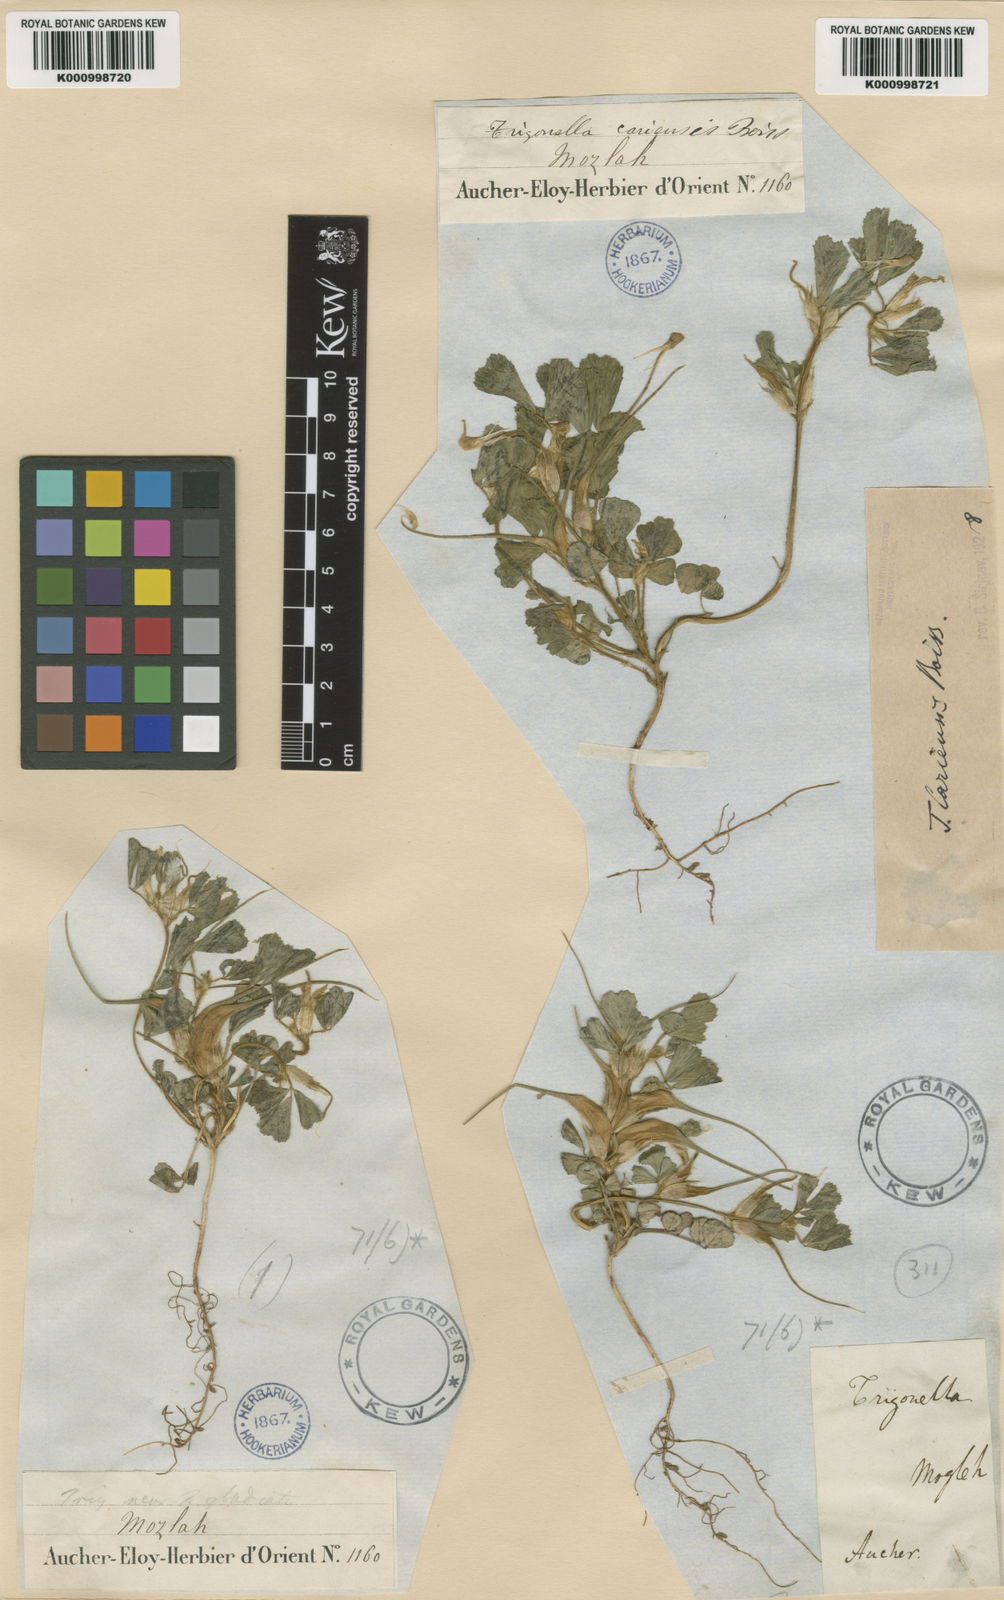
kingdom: Plantae
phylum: Tracheophyta
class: Magnoliopsida
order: Fabales
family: Fabaceae
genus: Trigonella
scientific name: Trigonella cariensis
